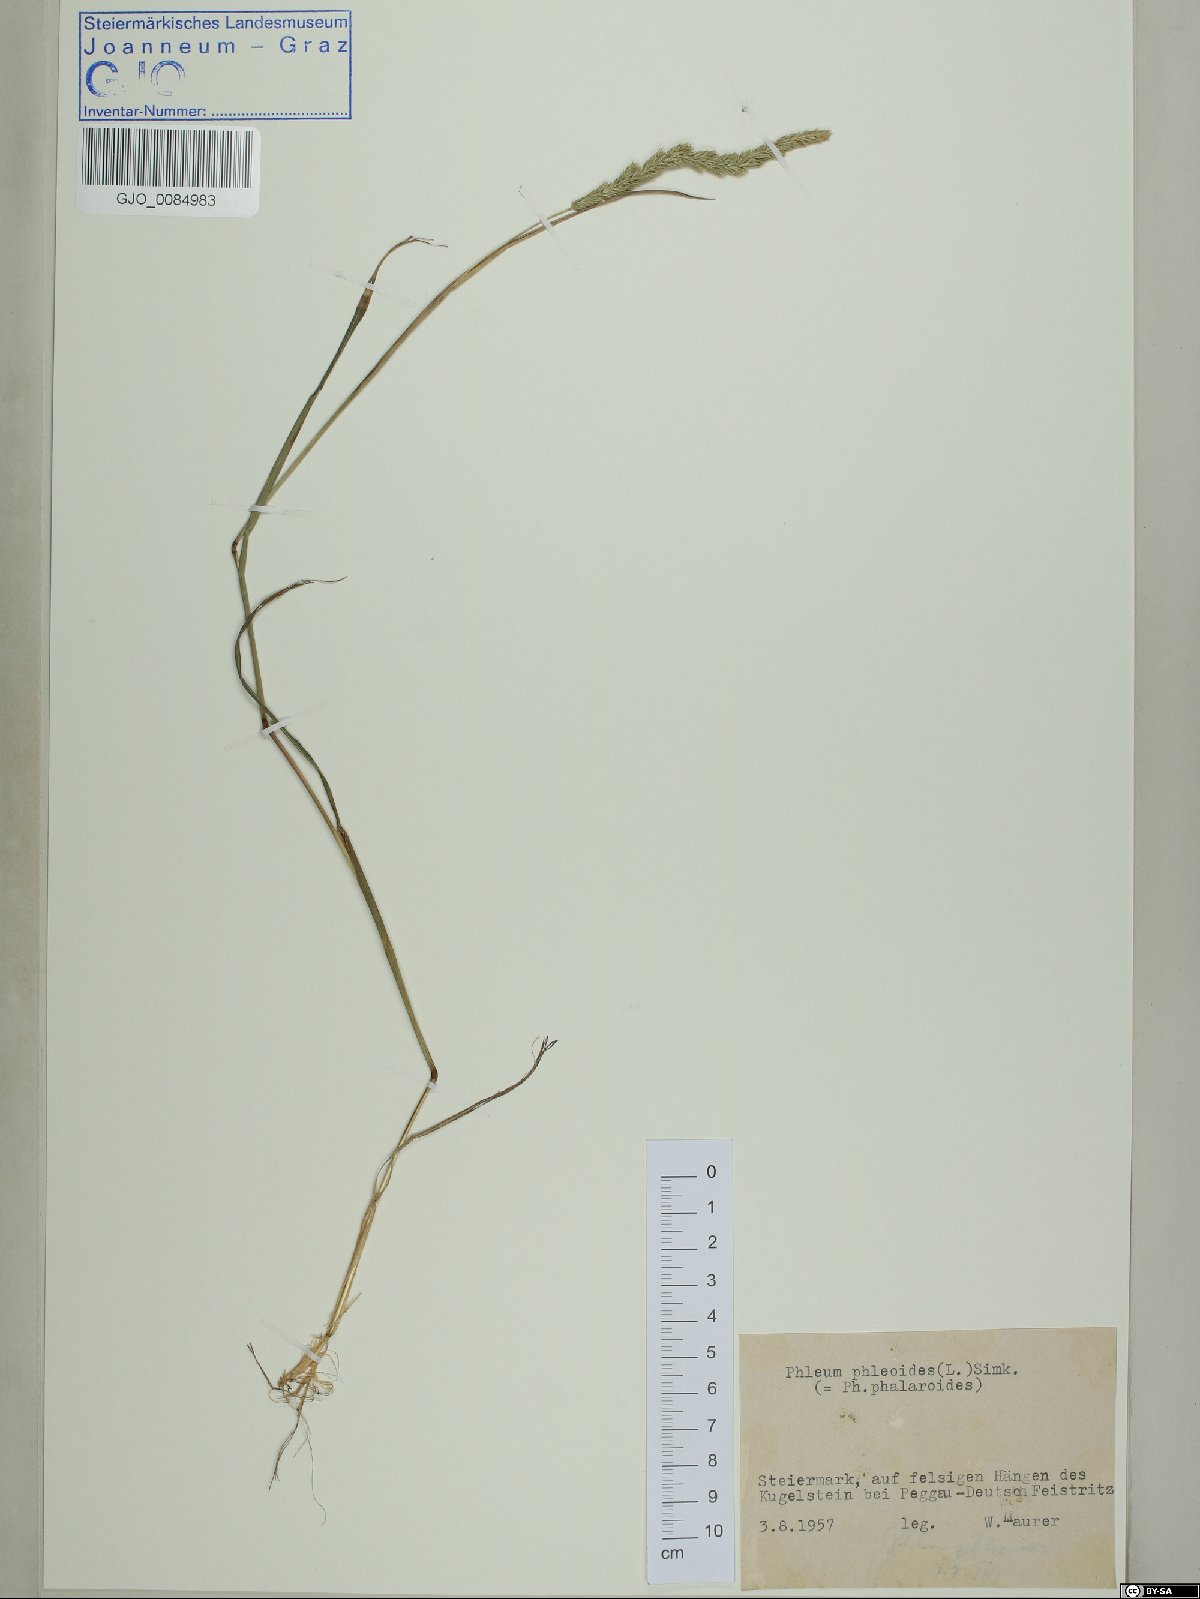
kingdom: Plantae
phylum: Tracheophyta
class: Liliopsida
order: Poales
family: Poaceae
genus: Phleum
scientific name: Phleum phleoides
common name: Purple-stem cat's-tail
